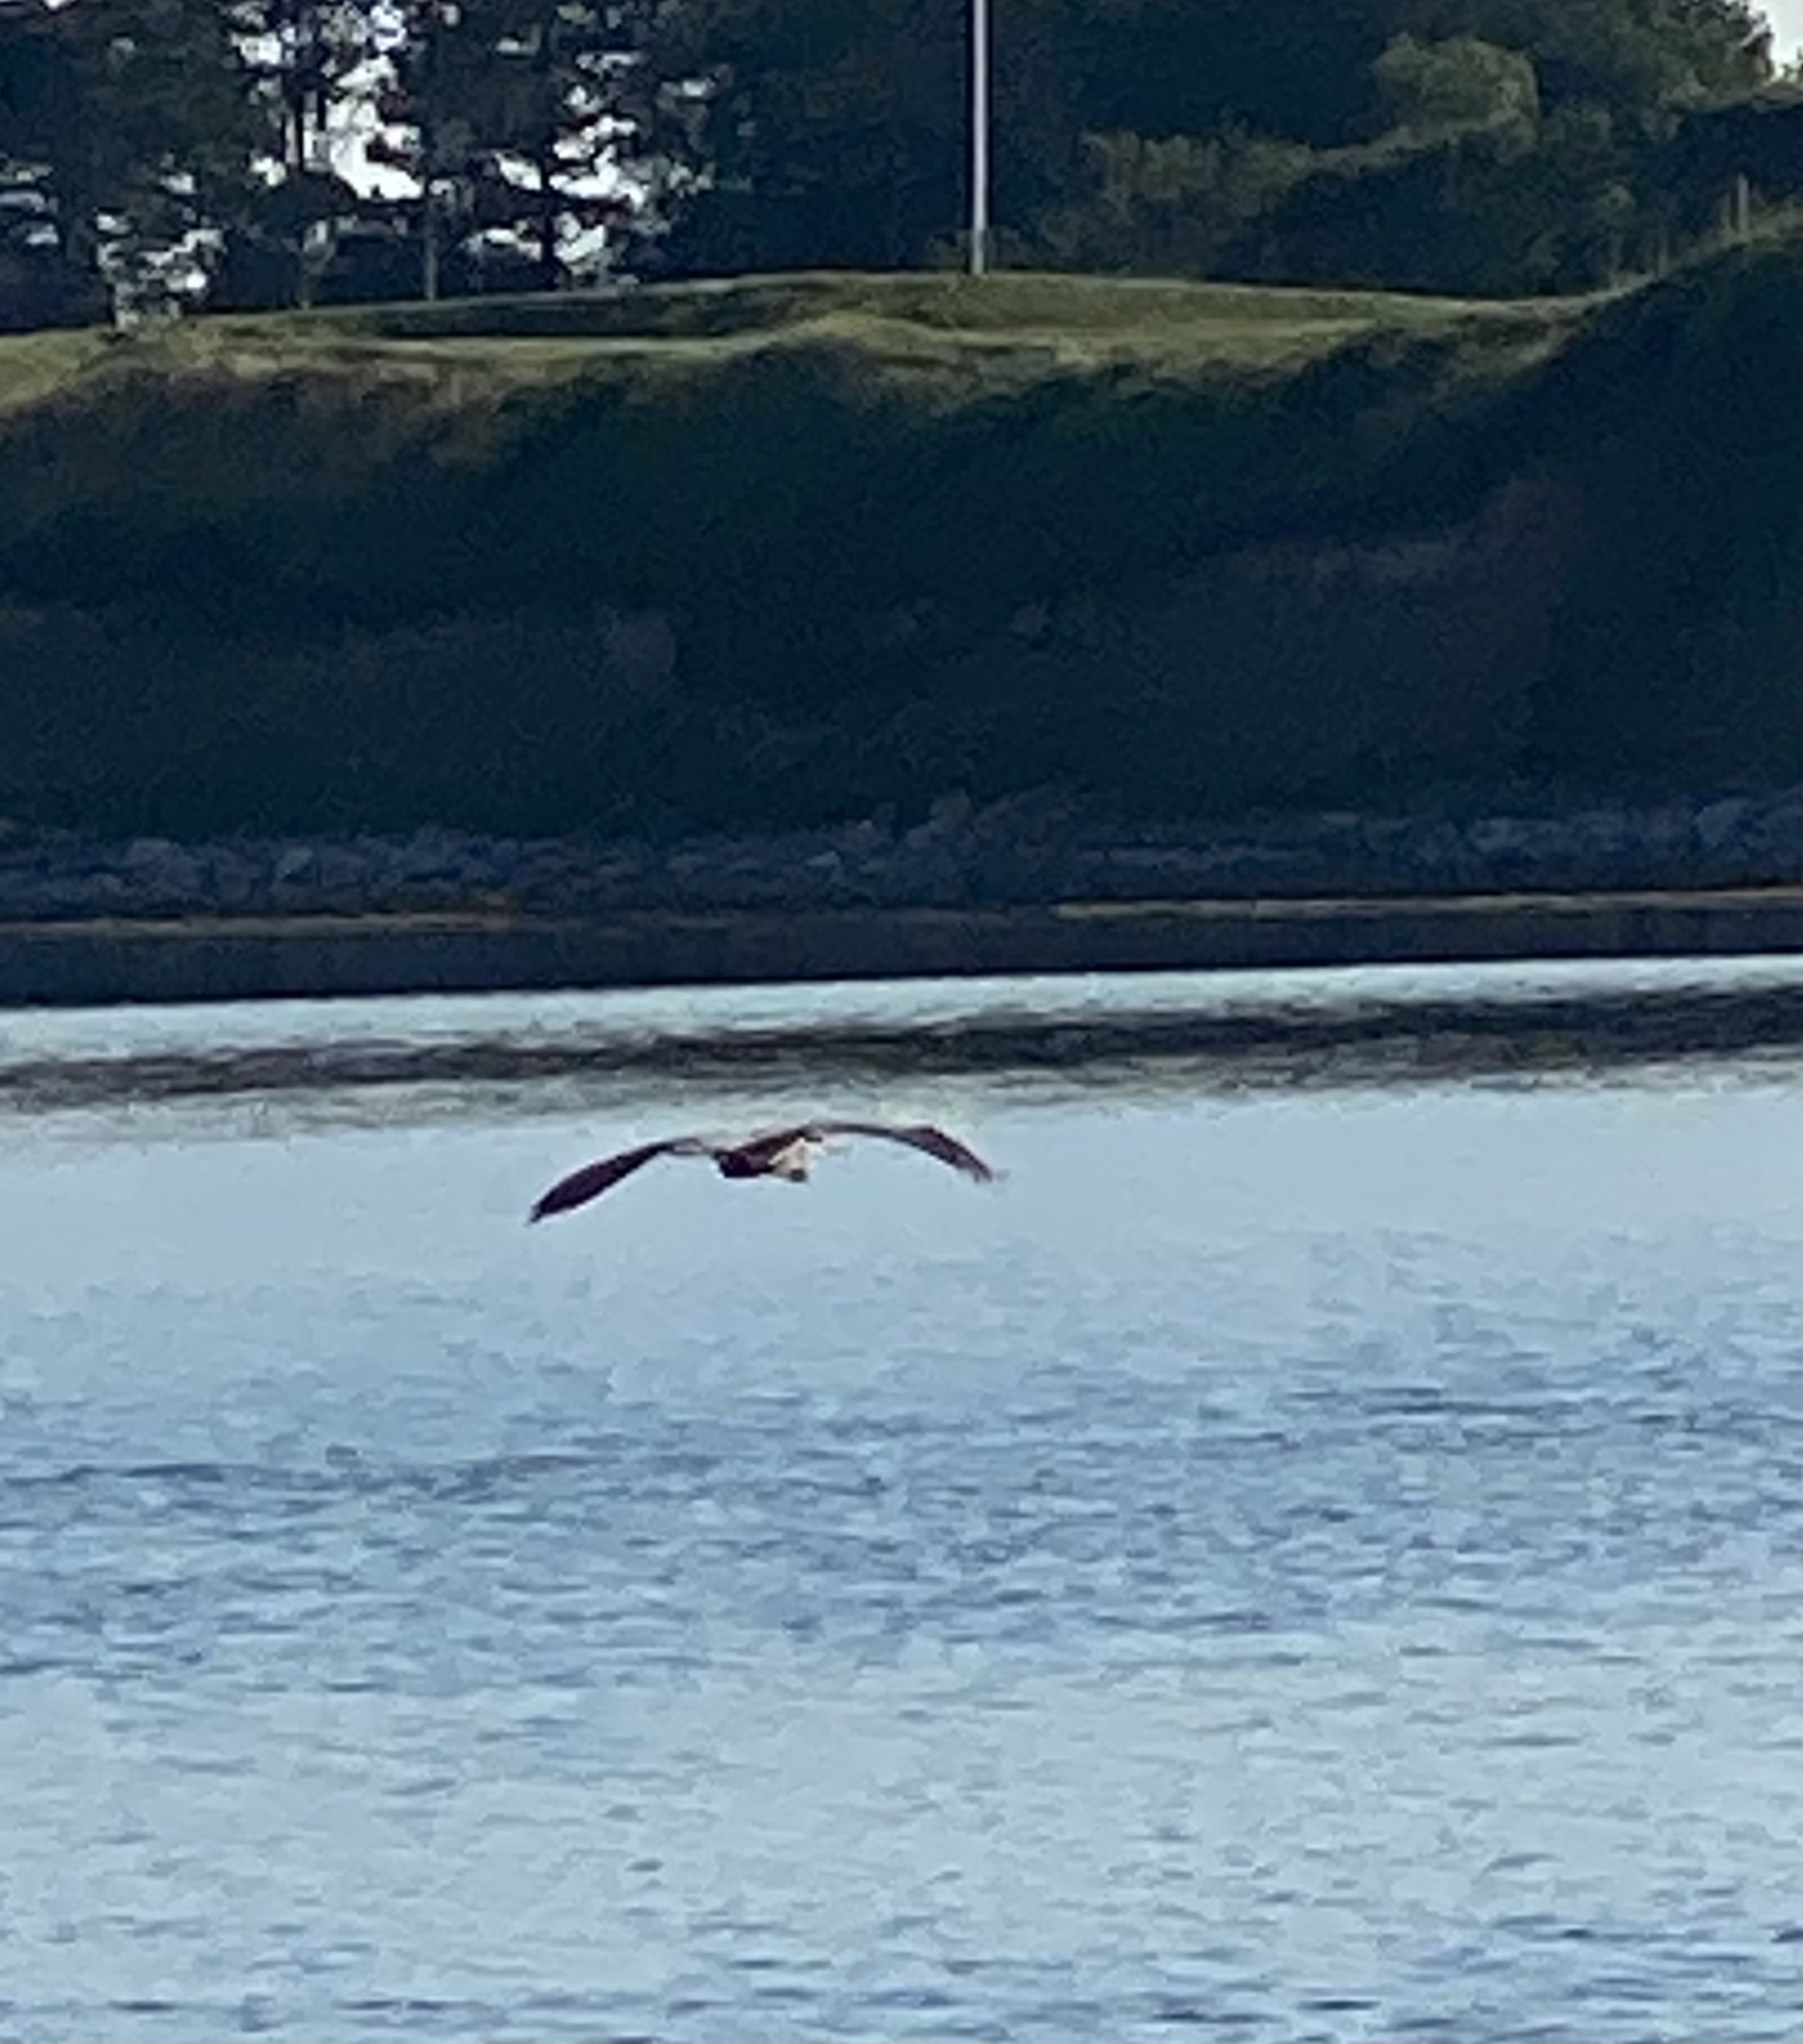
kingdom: Animalia
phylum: Chordata
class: Aves
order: Pelecaniformes
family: Ardeidae
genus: Ardea
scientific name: Ardea cinerea
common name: Fiskehejre
